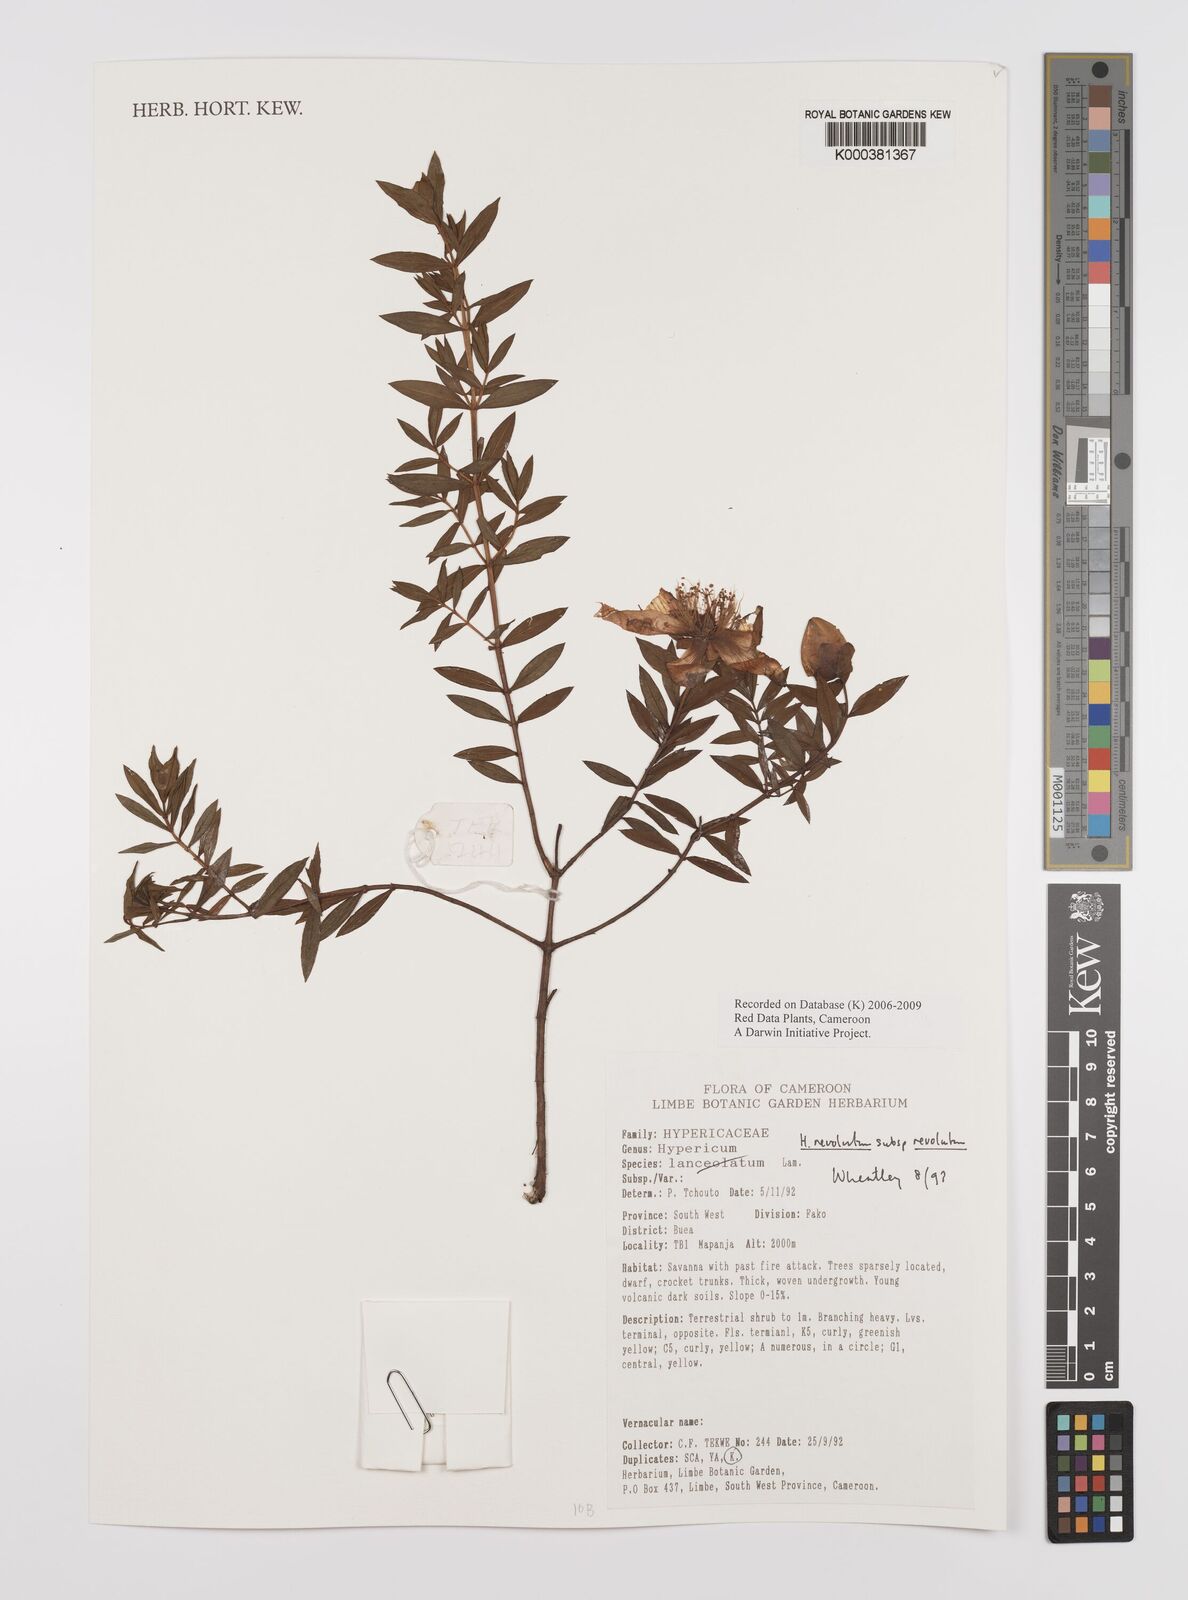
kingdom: Plantae
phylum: Tracheophyta
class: Magnoliopsida
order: Malpighiales
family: Hypericaceae
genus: Hypericum
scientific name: Hypericum revolutum
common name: Curry bush
